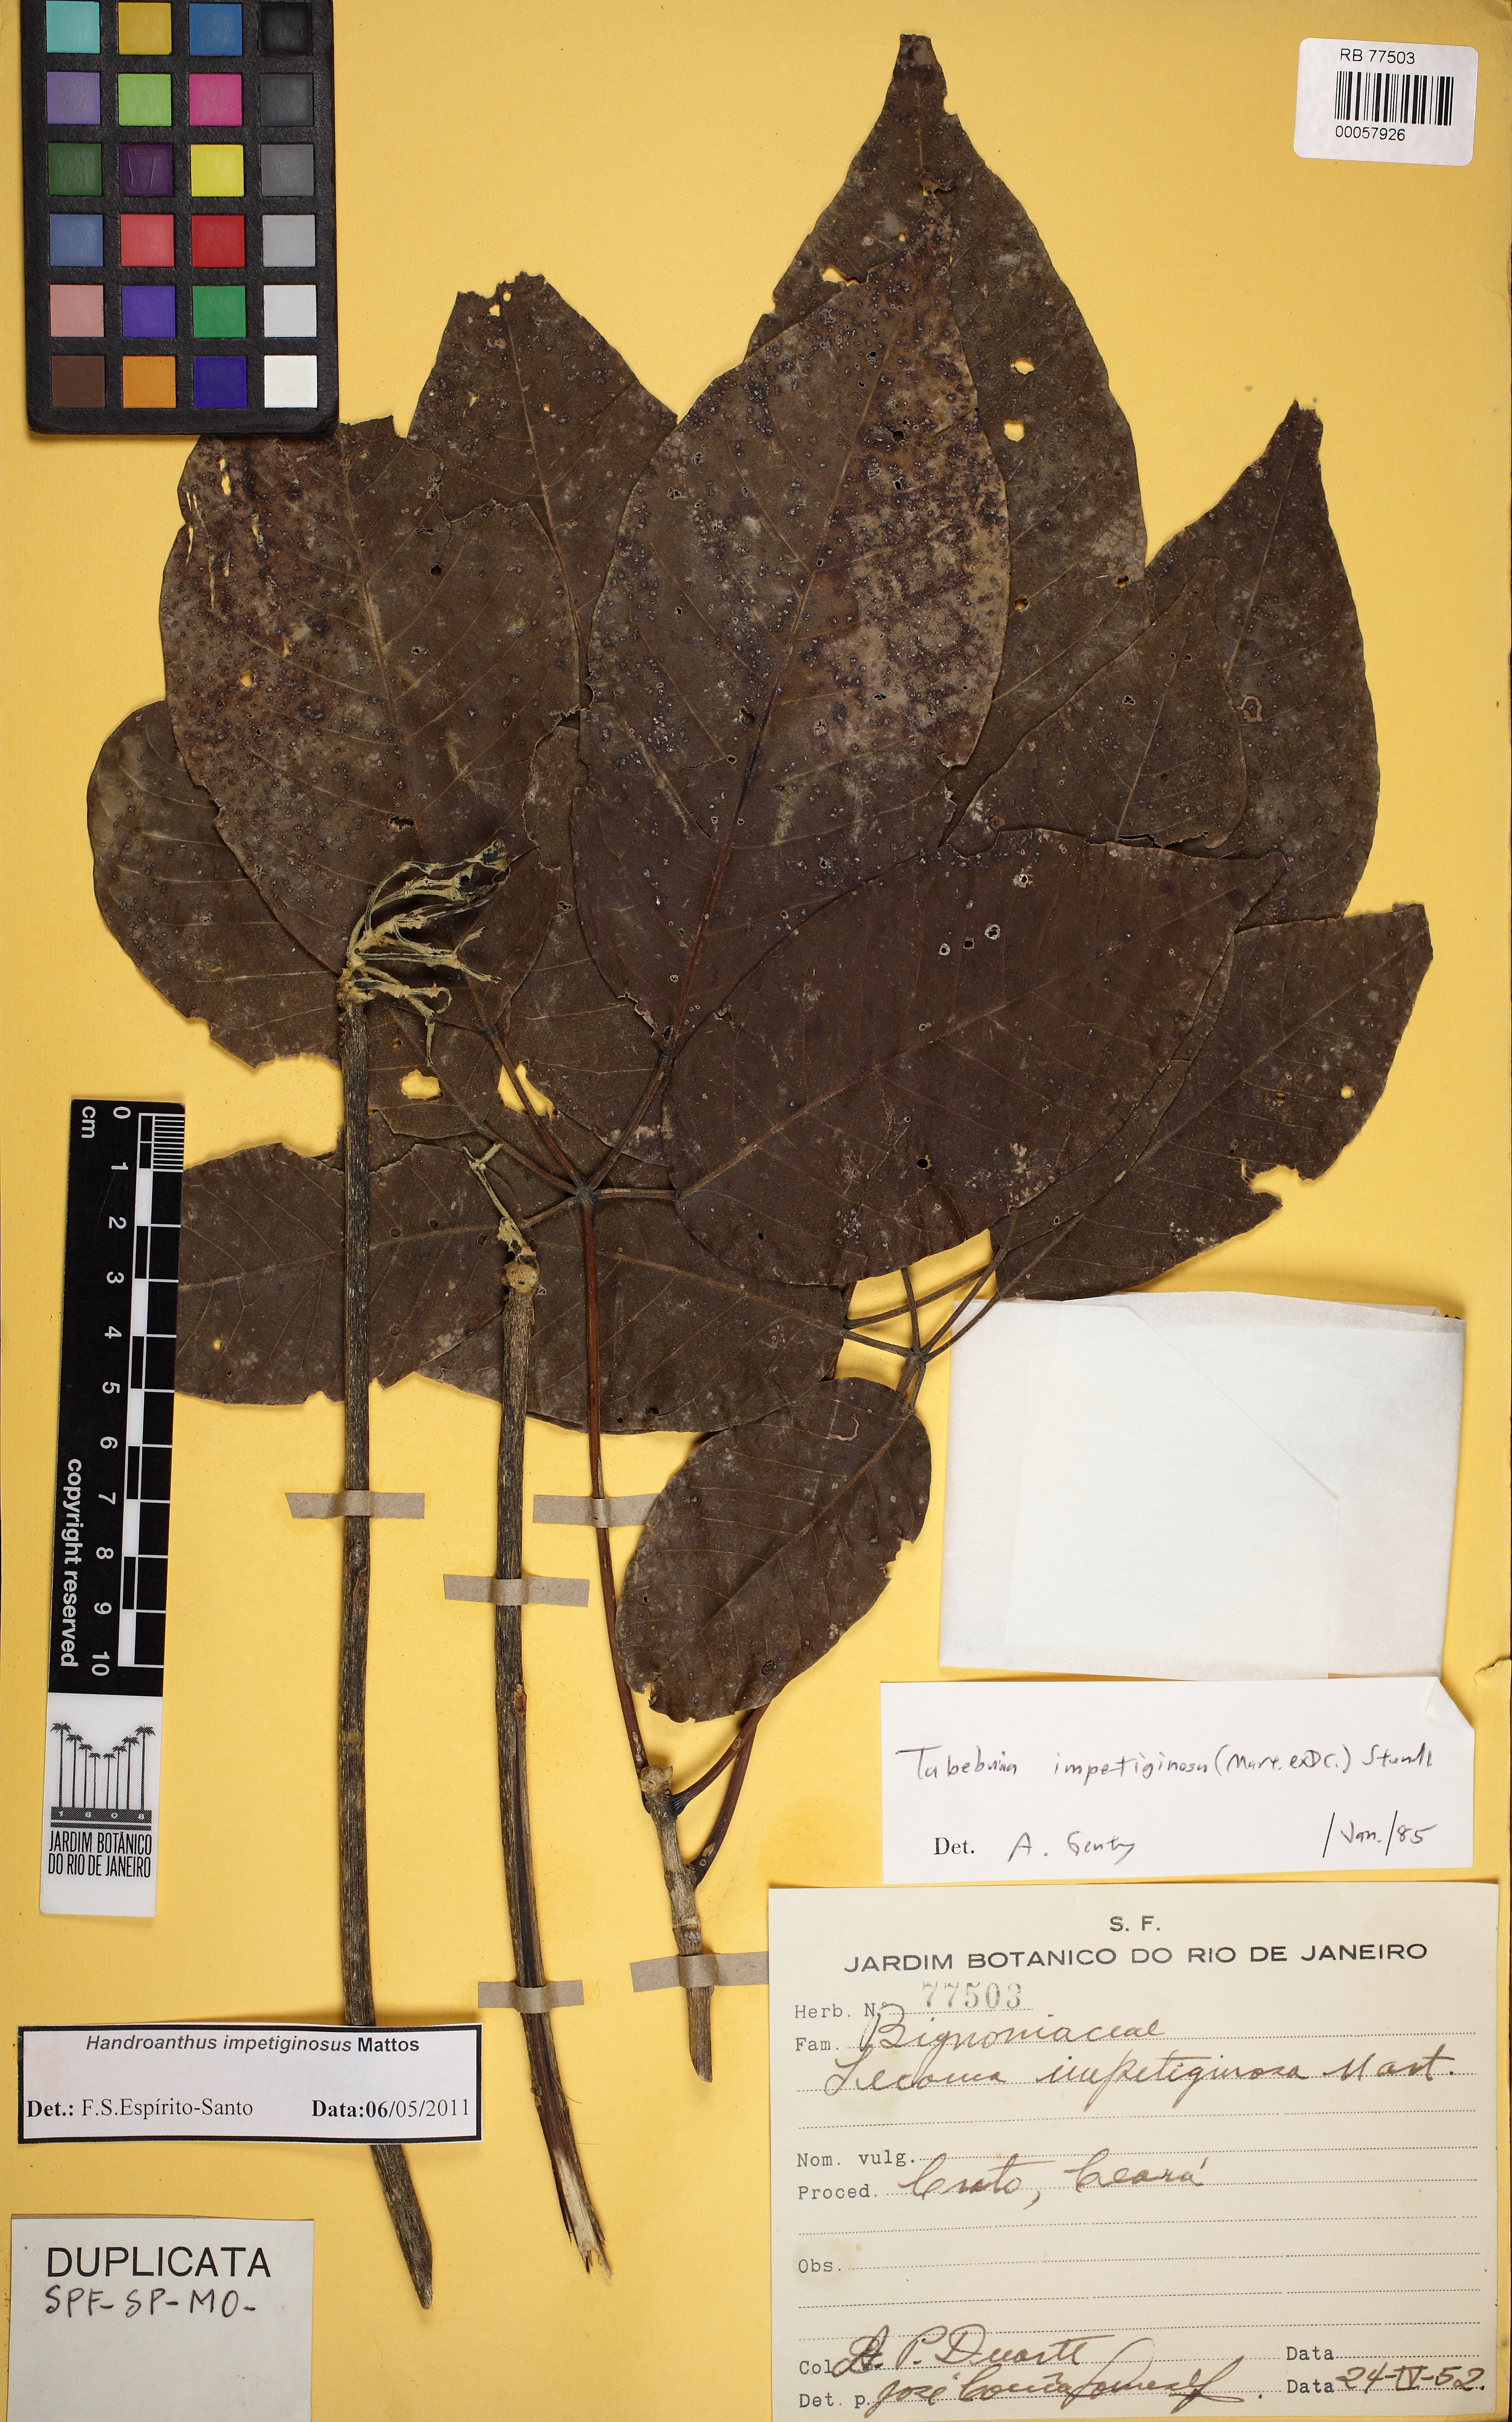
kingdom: Plantae
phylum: Tracheophyta
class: Magnoliopsida
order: Lamiales
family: Bignoniaceae
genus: Handroanthus
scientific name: Handroanthus impetiginosum
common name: Pink trumpet tree
